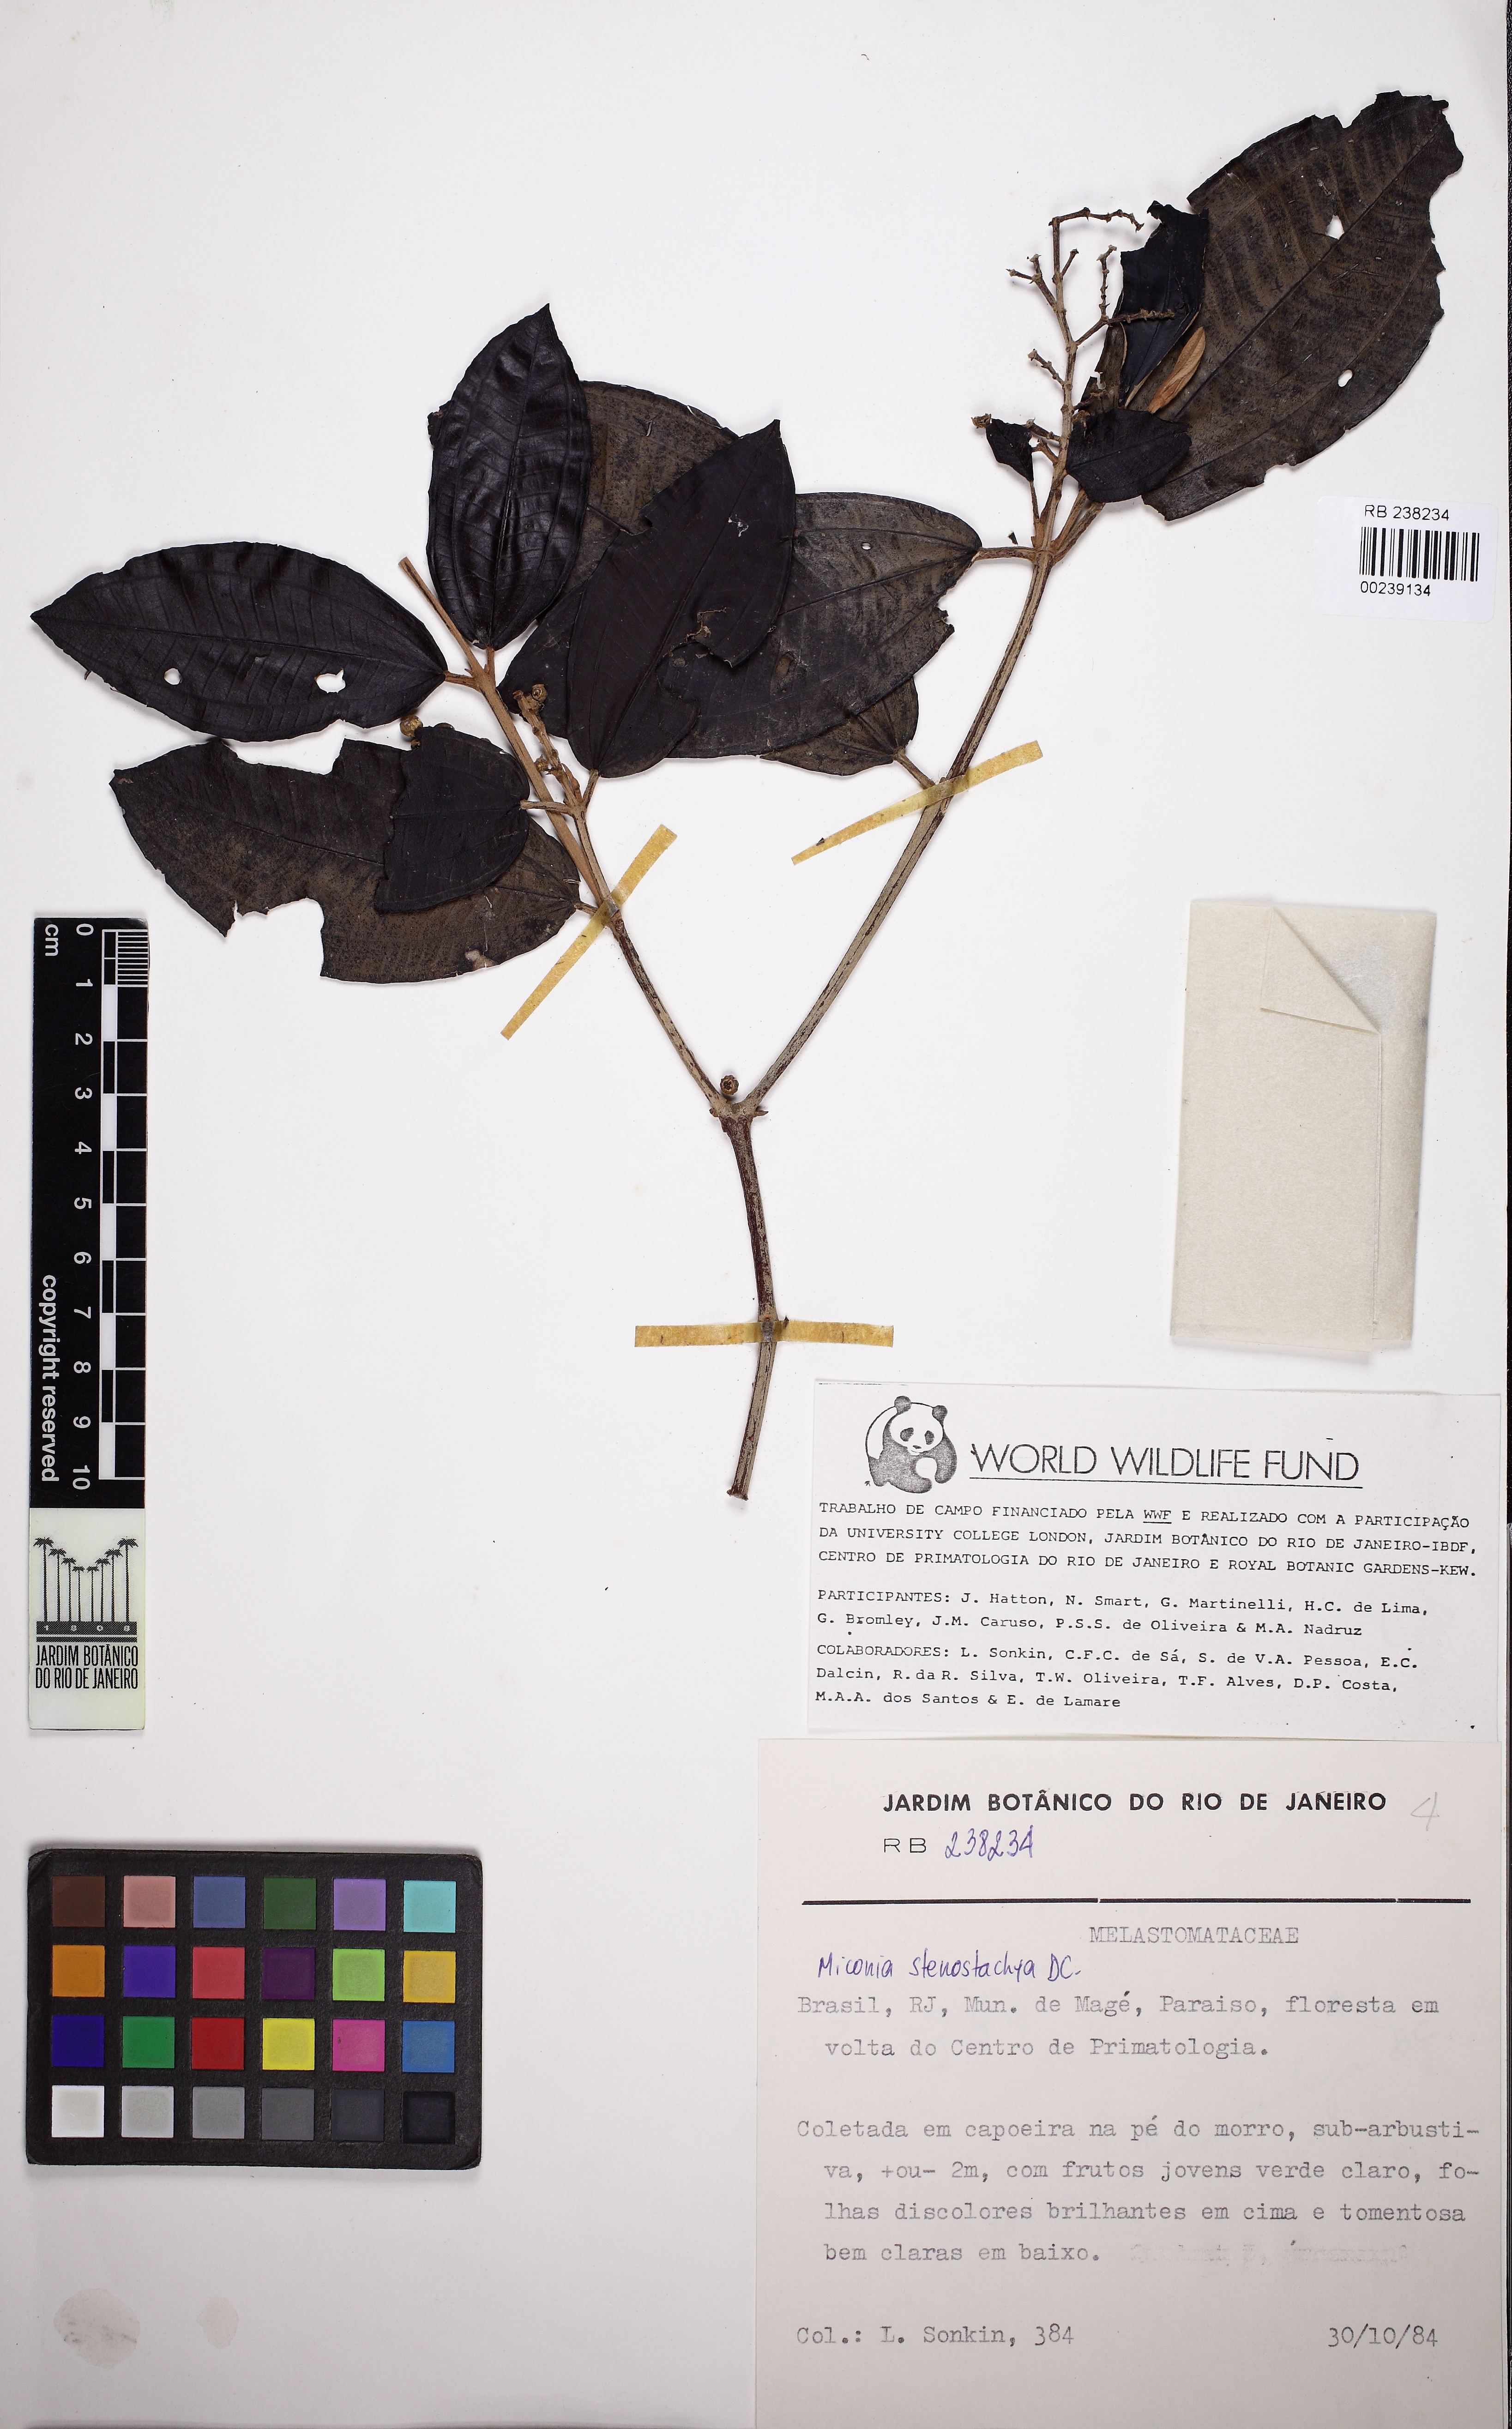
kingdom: Plantae
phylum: Tracheophyta
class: Magnoliopsida
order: Myrtales
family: Melastomataceae
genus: Miconia
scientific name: Miconia stenostachya
